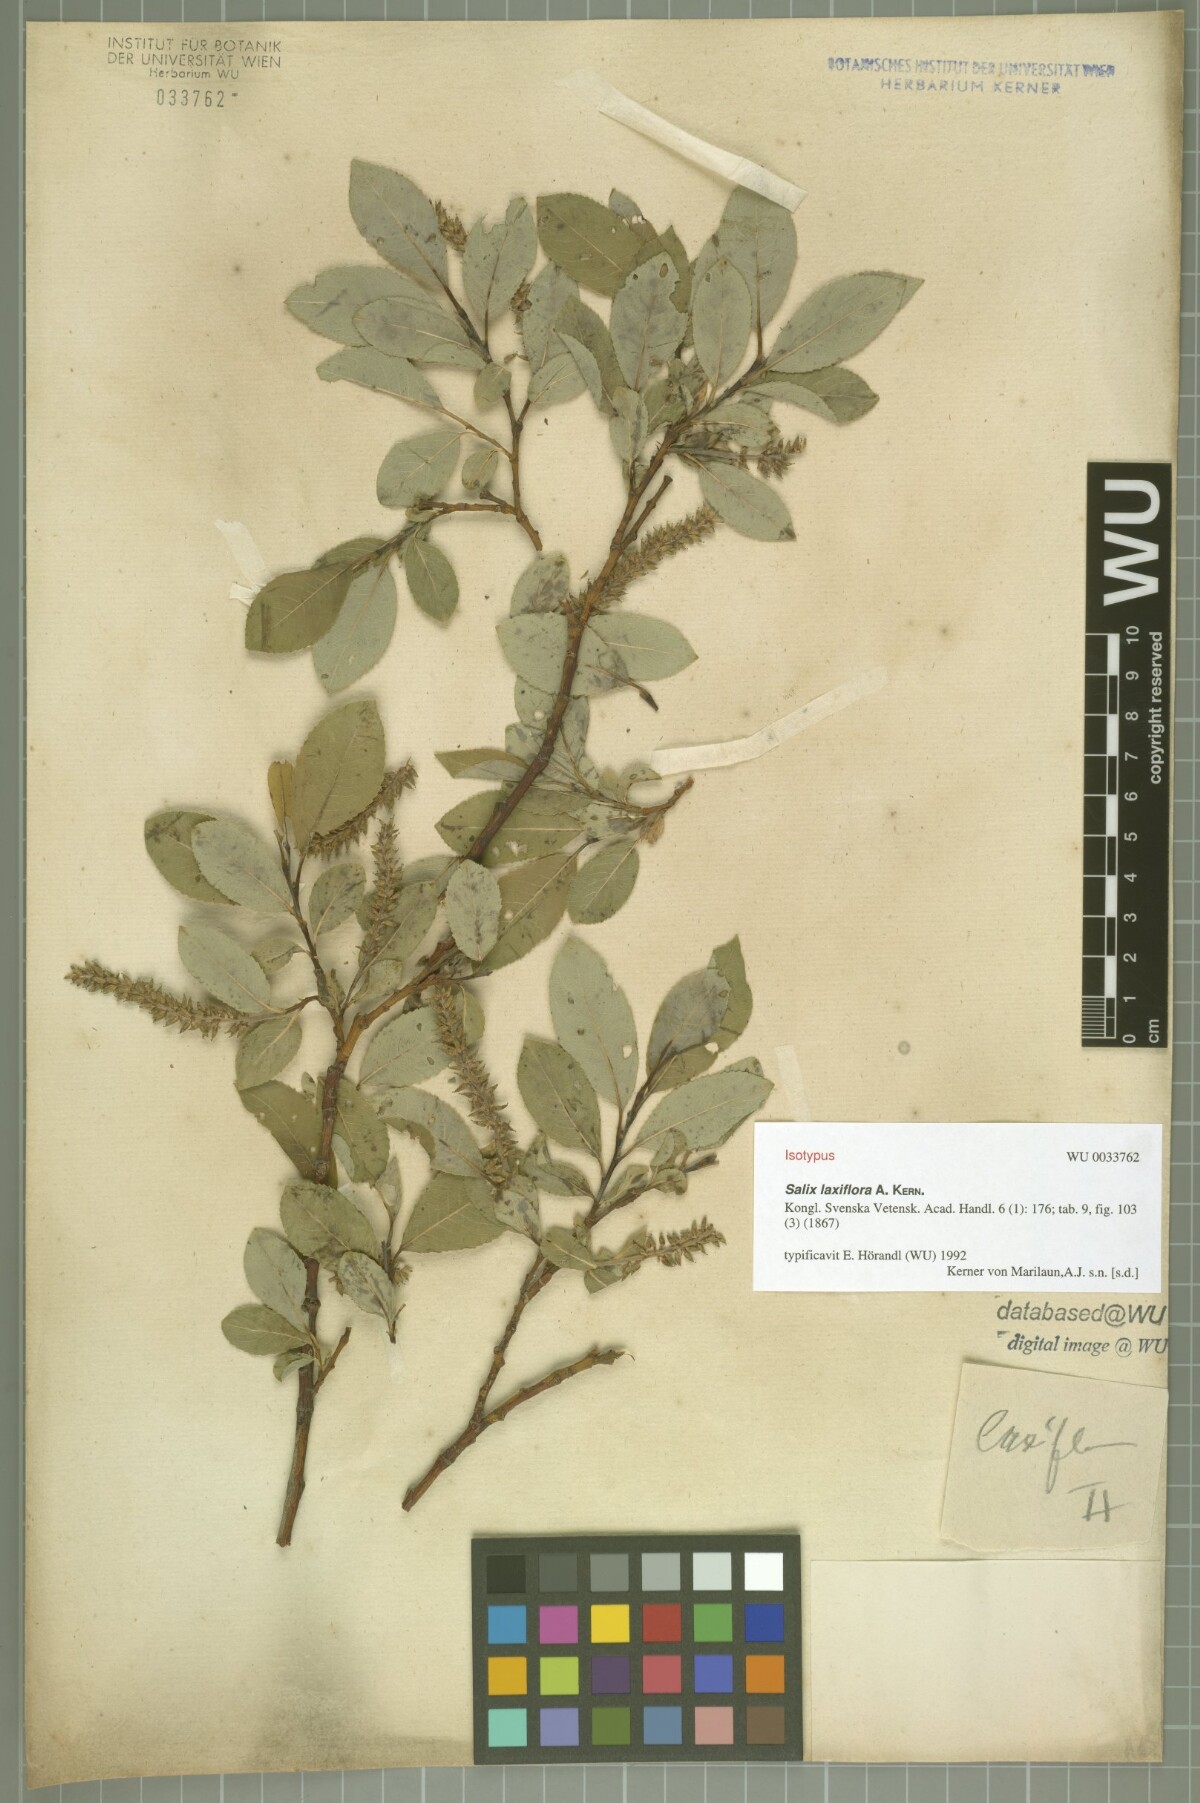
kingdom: Plantae
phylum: Tracheophyta
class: Magnoliopsida
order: Malpighiales
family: Salicaceae
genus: Salix
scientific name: Salix glabra
